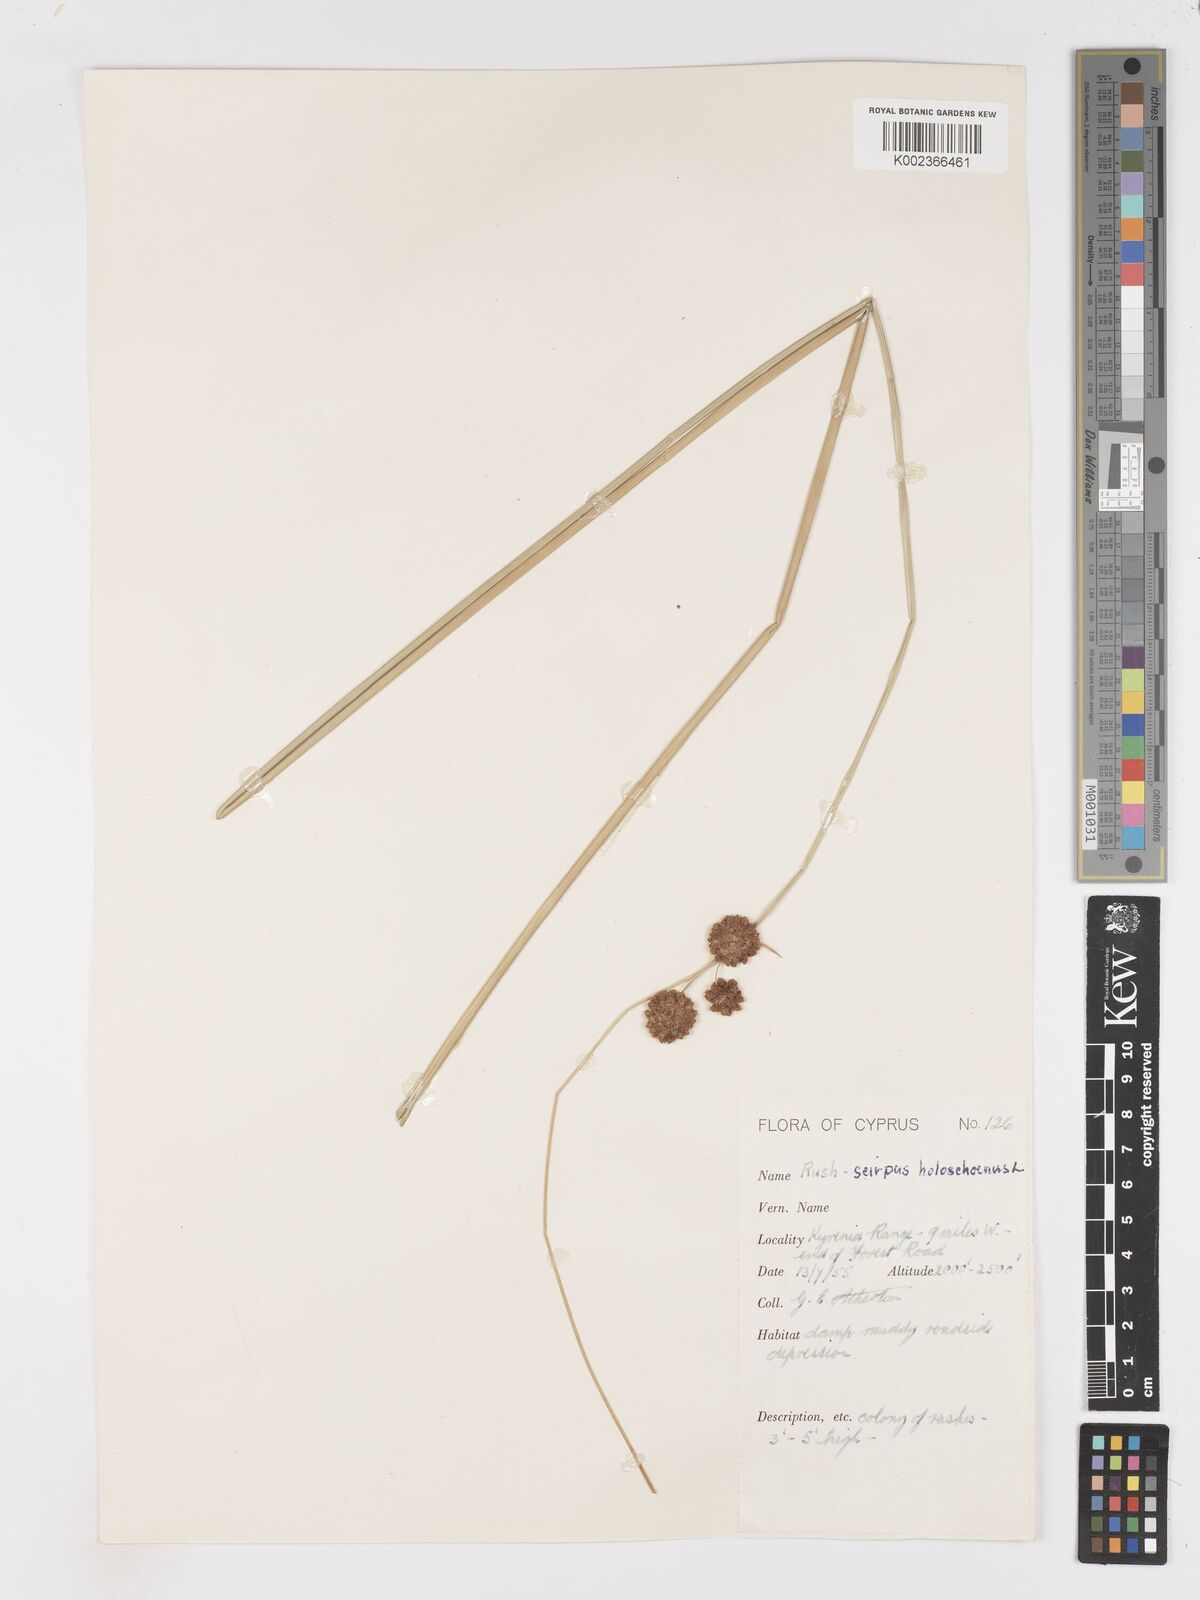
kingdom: Plantae
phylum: Tracheophyta
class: Liliopsida
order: Poales
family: Cyperaceae
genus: Scirpoides
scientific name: Scirpoides holoschoenus
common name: Round-headed club-rush
